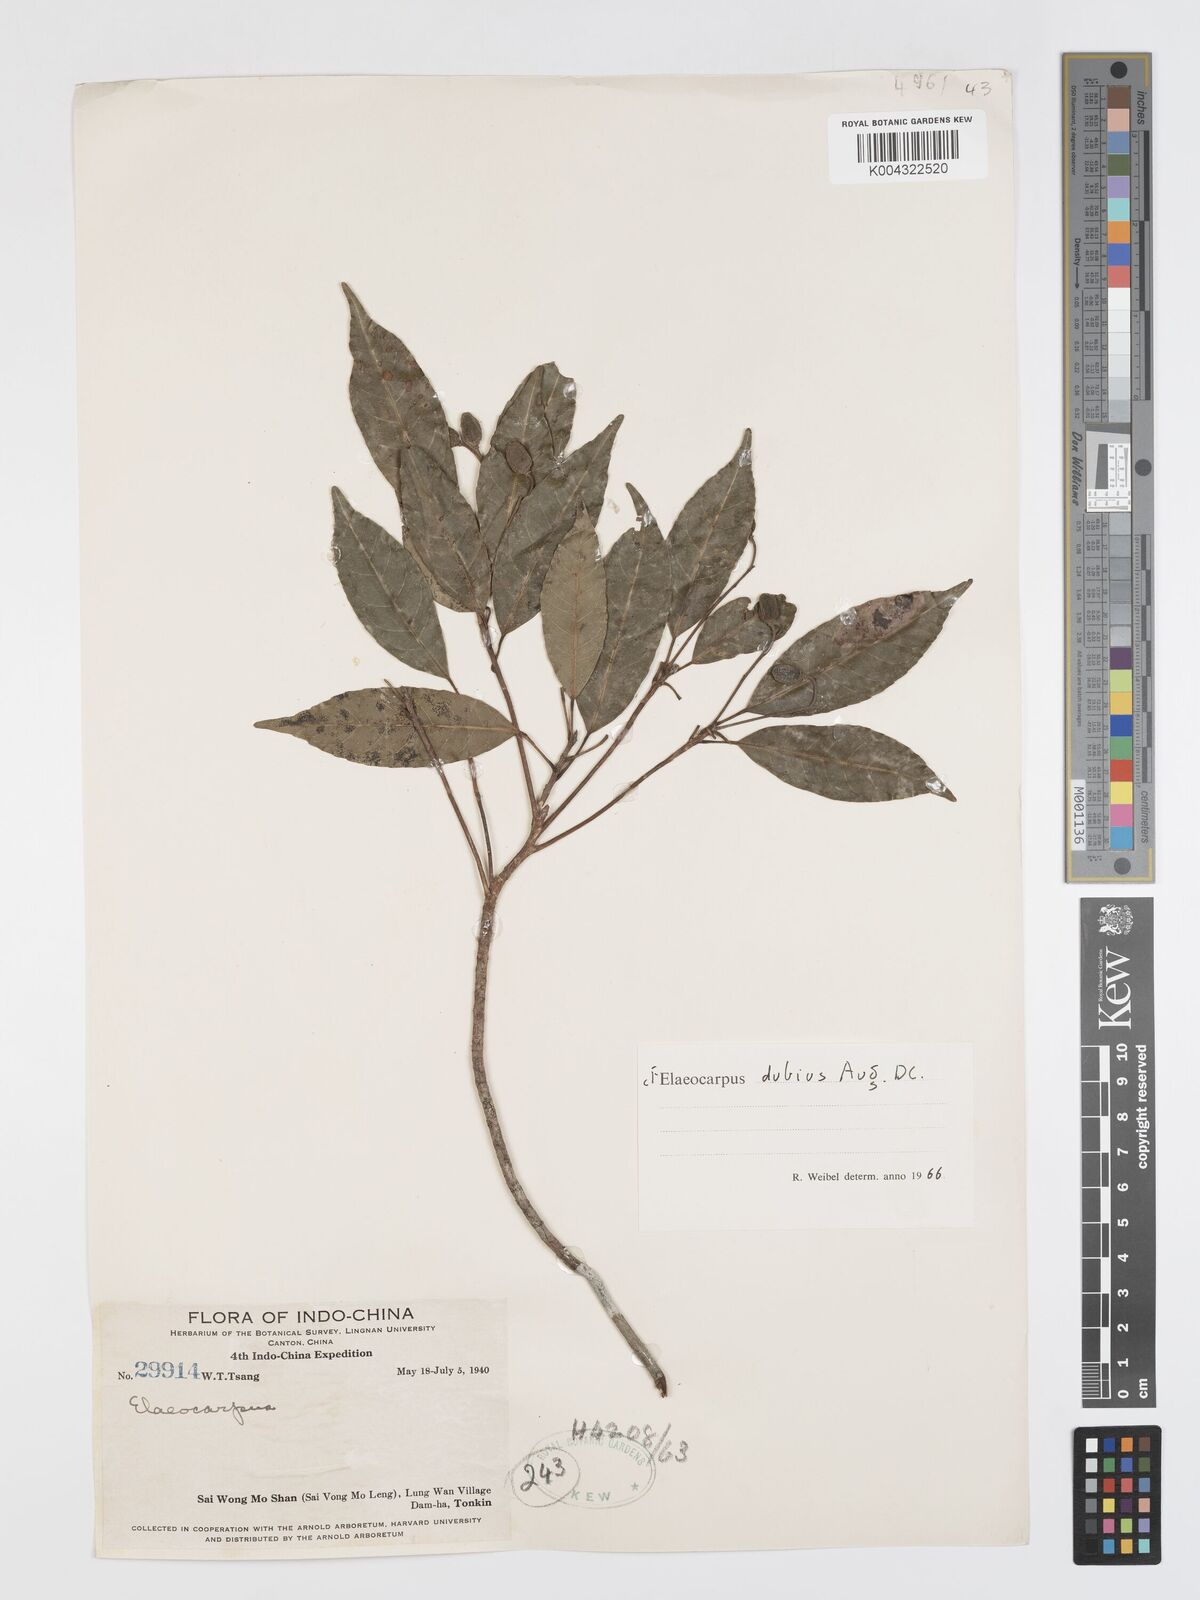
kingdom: Plantae
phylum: Tracheophyta
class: Magnoliopsida
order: Oxalidales
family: Elaeocarpaceae
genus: Elaeocarpus
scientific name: Elaeocarpus dubius
